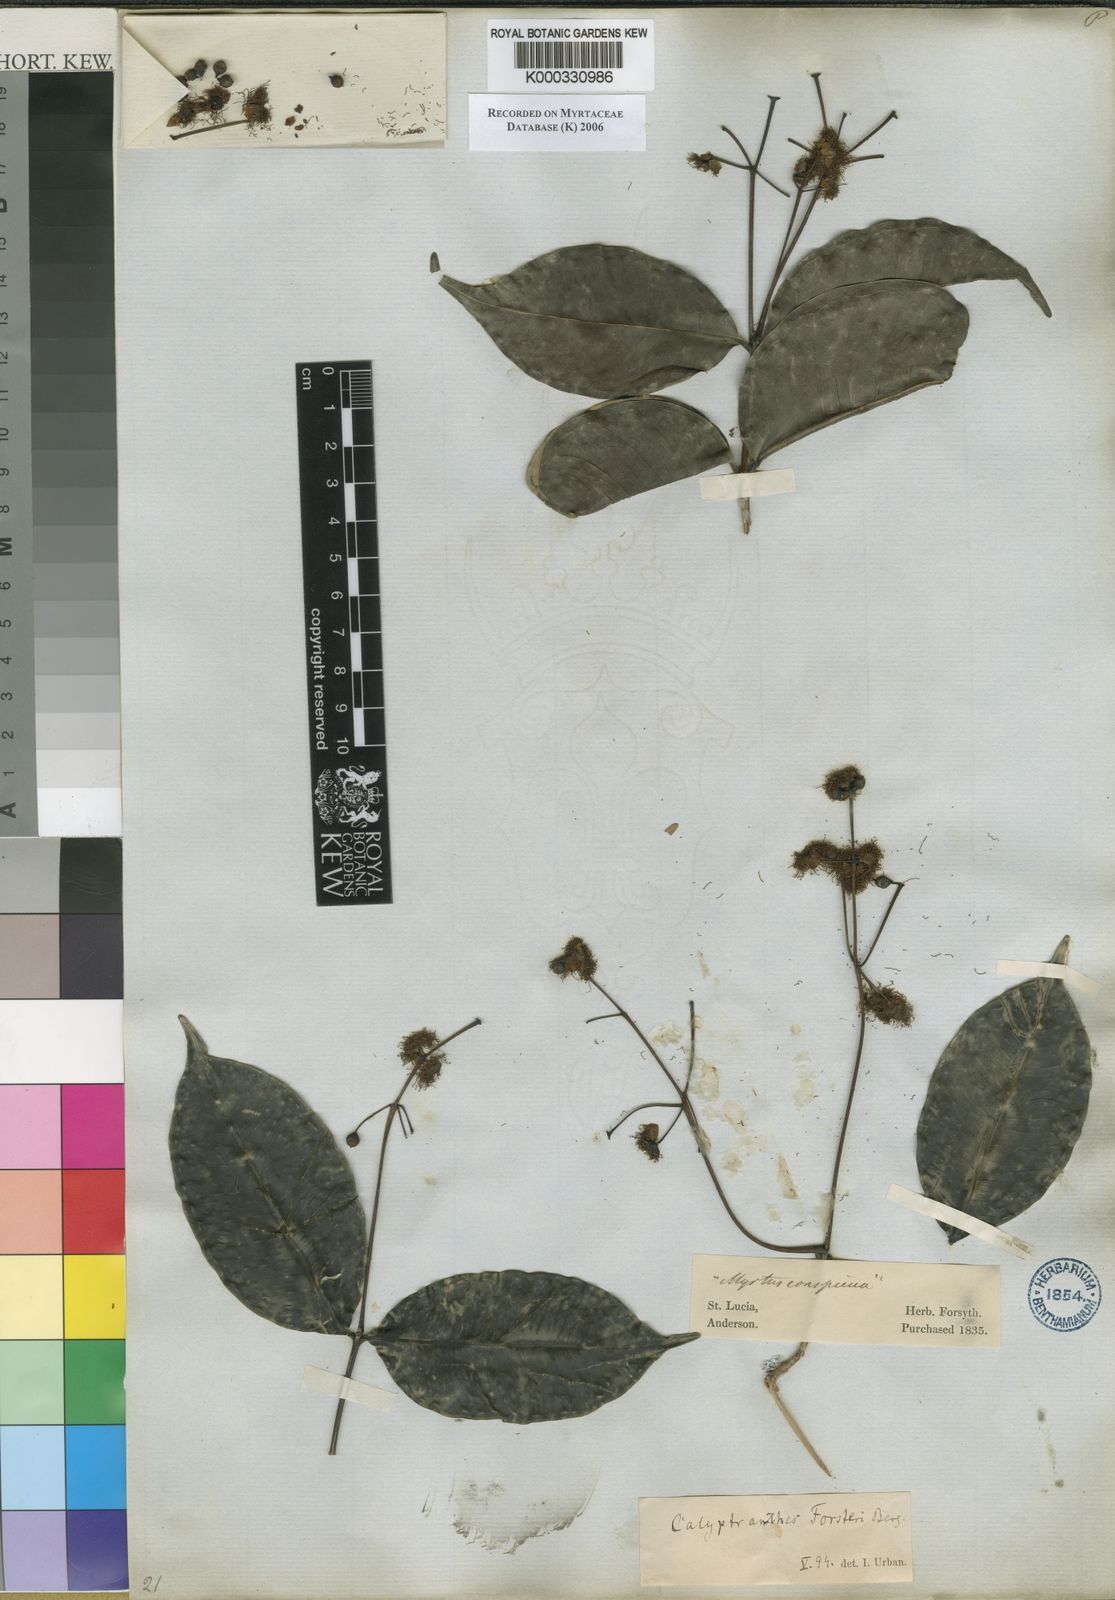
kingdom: Plantae
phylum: Tracheophyta
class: Magnoliopsida
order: Myrtales
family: Myrtaceae
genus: Myrcia
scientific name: Myrcia forsteri
